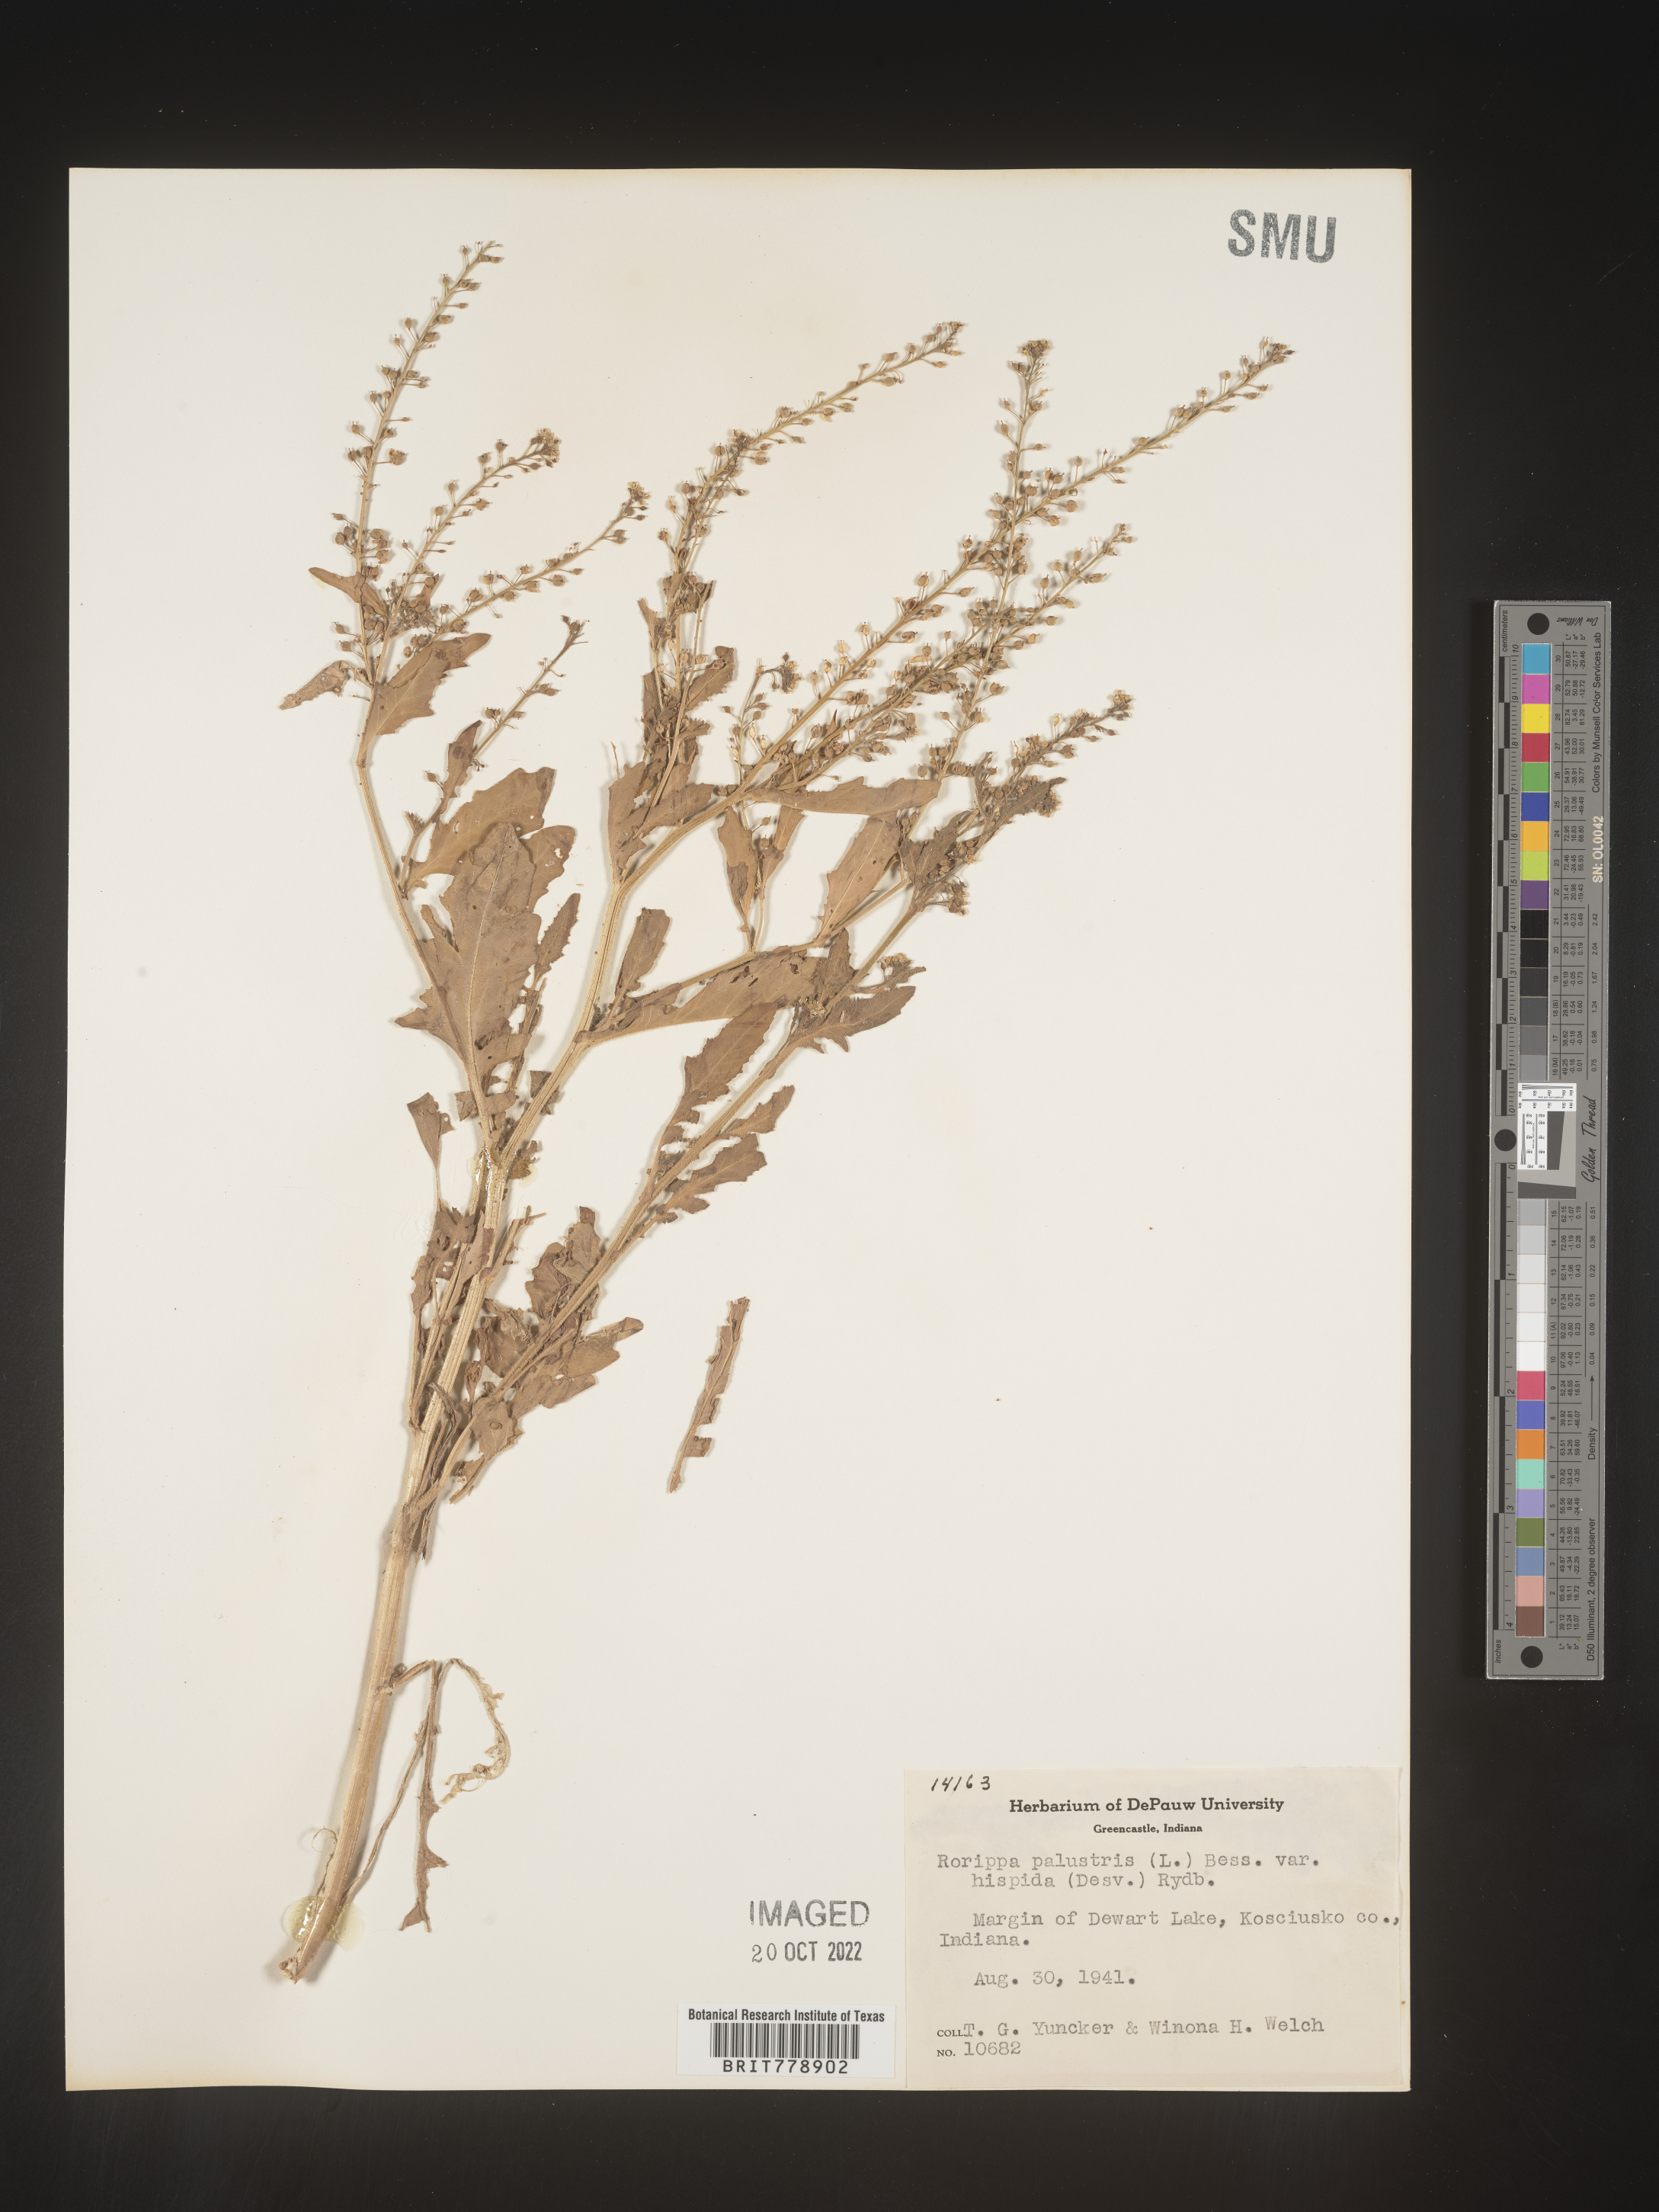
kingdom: Plantae
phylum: Tracheophyta
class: Magnoliopsida
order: Brassicales
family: Brassicaceae
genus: Rorippa
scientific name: Rorippa palustris
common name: Marsh yellow-cress
